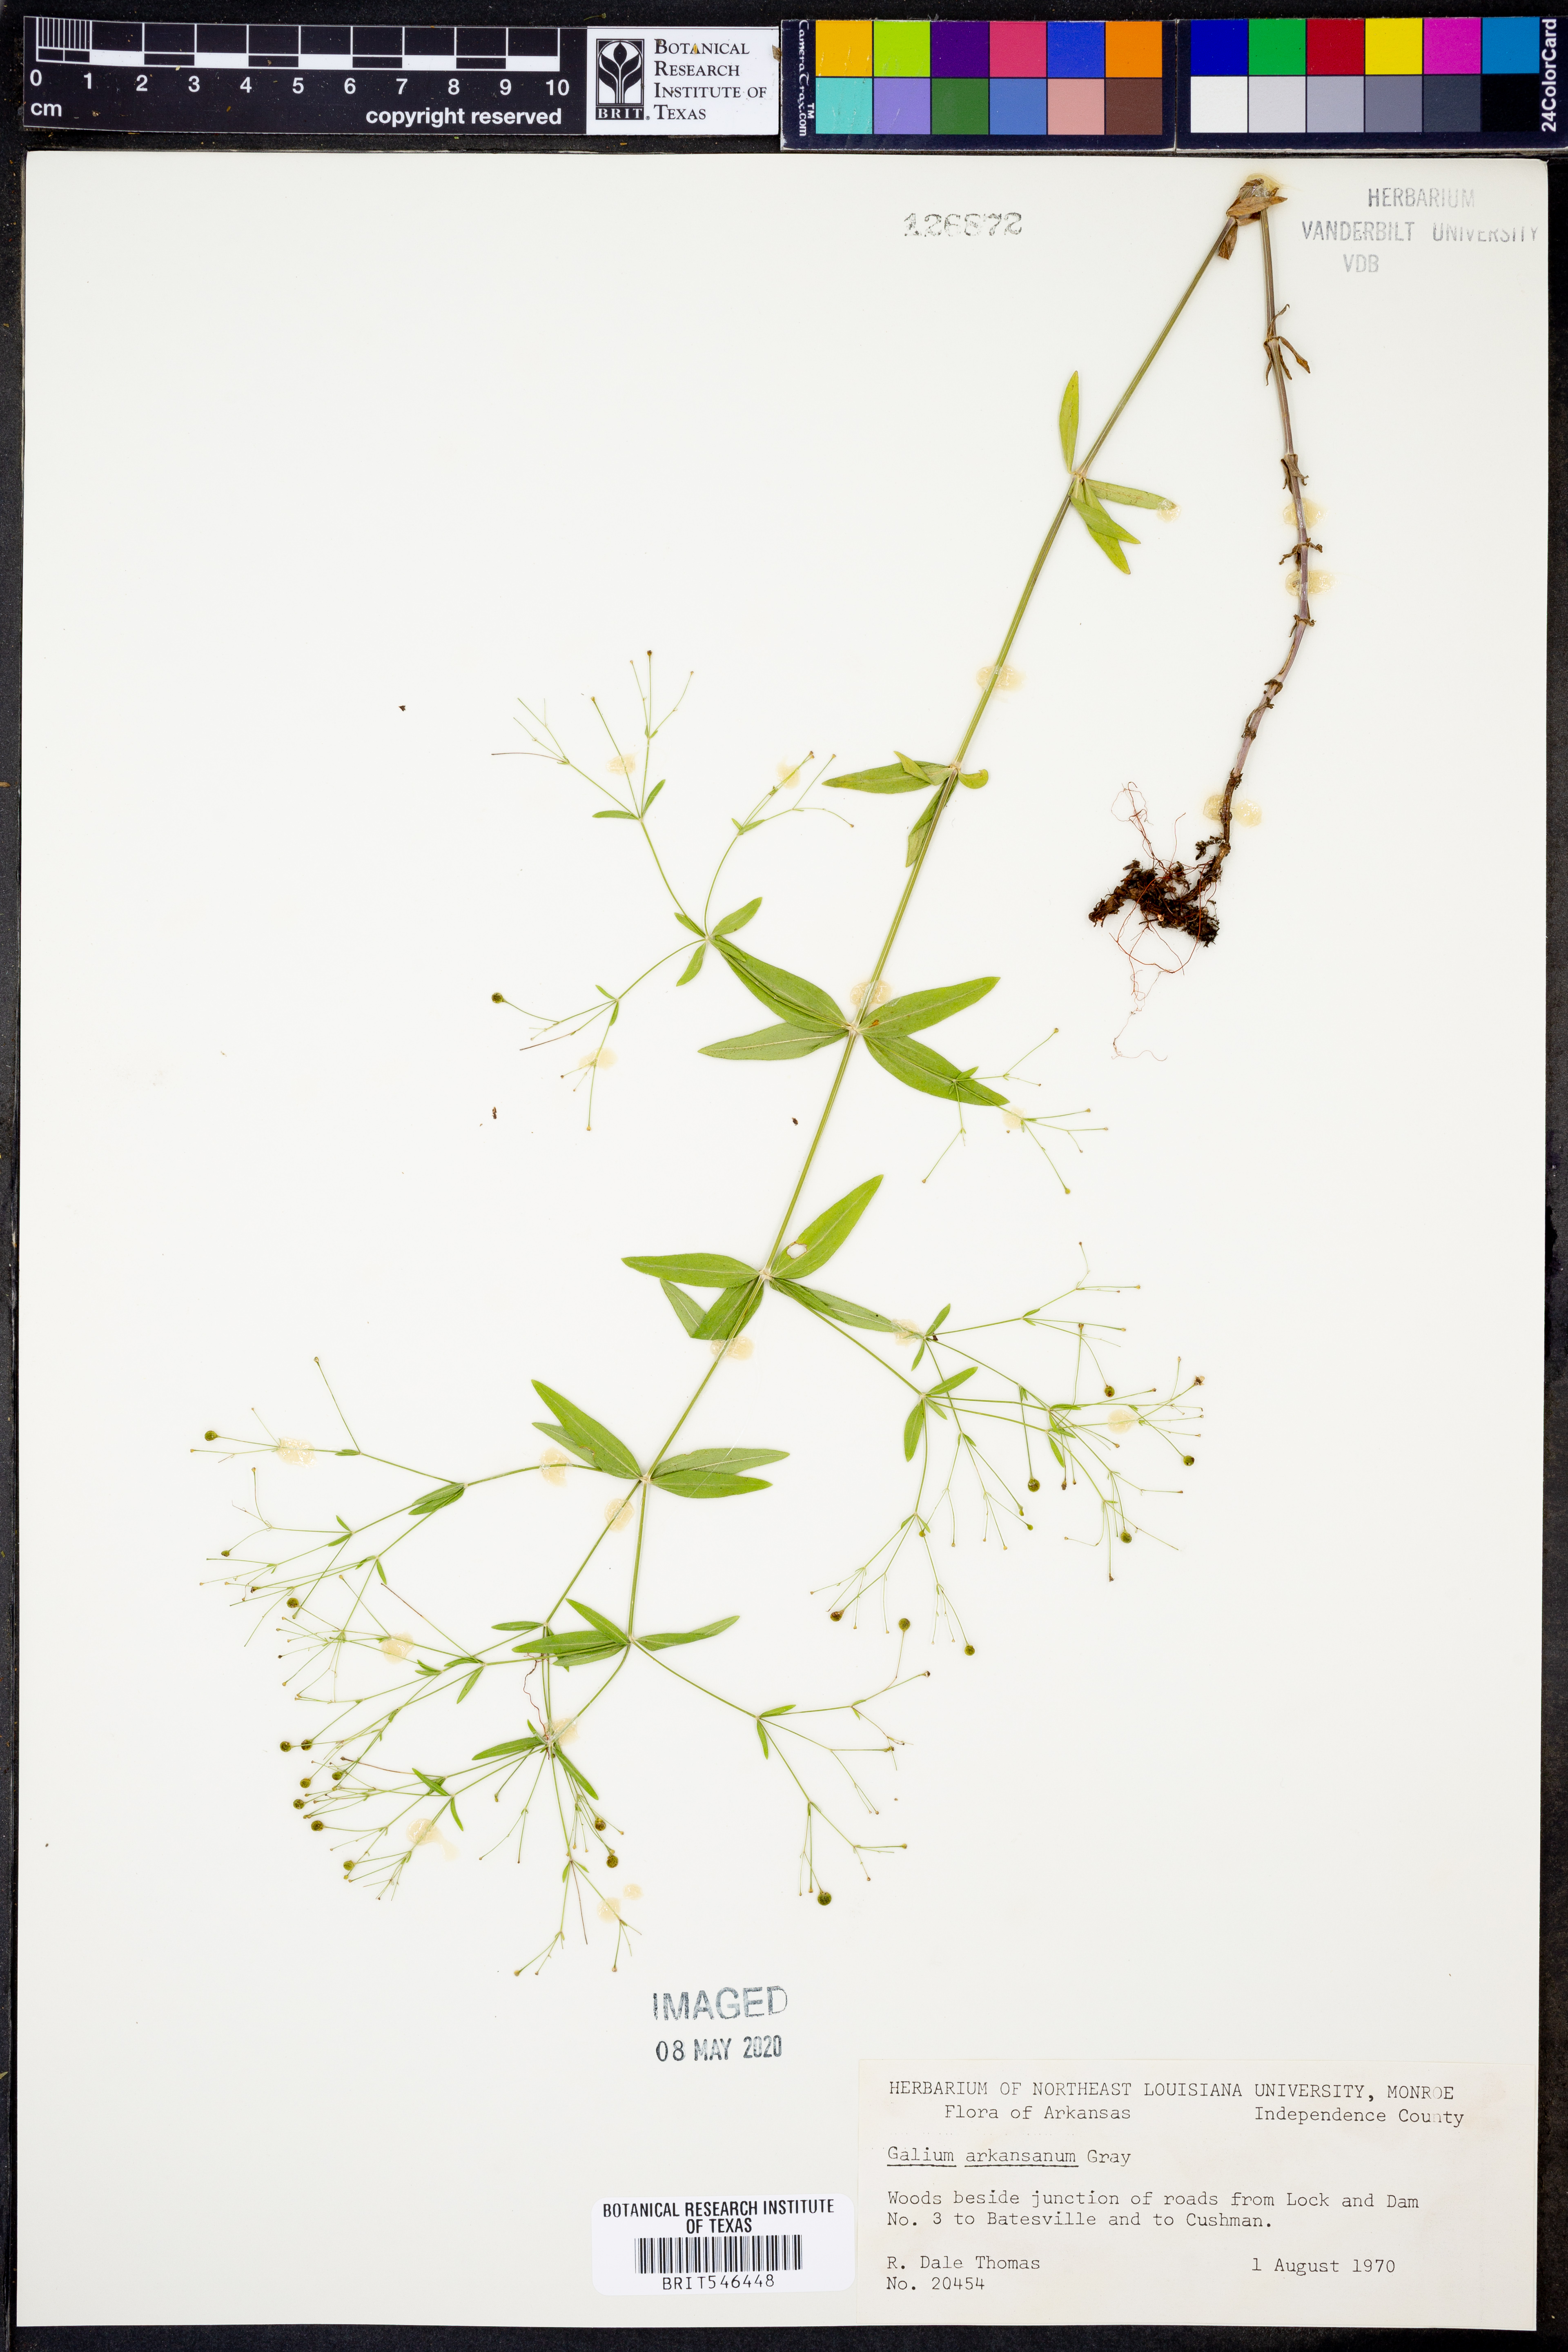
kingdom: Plantae
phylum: Tracheophyta
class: Magnoliopsida
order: Gentianales
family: Rubiaceae
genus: Galium
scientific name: Galium arkansanum
